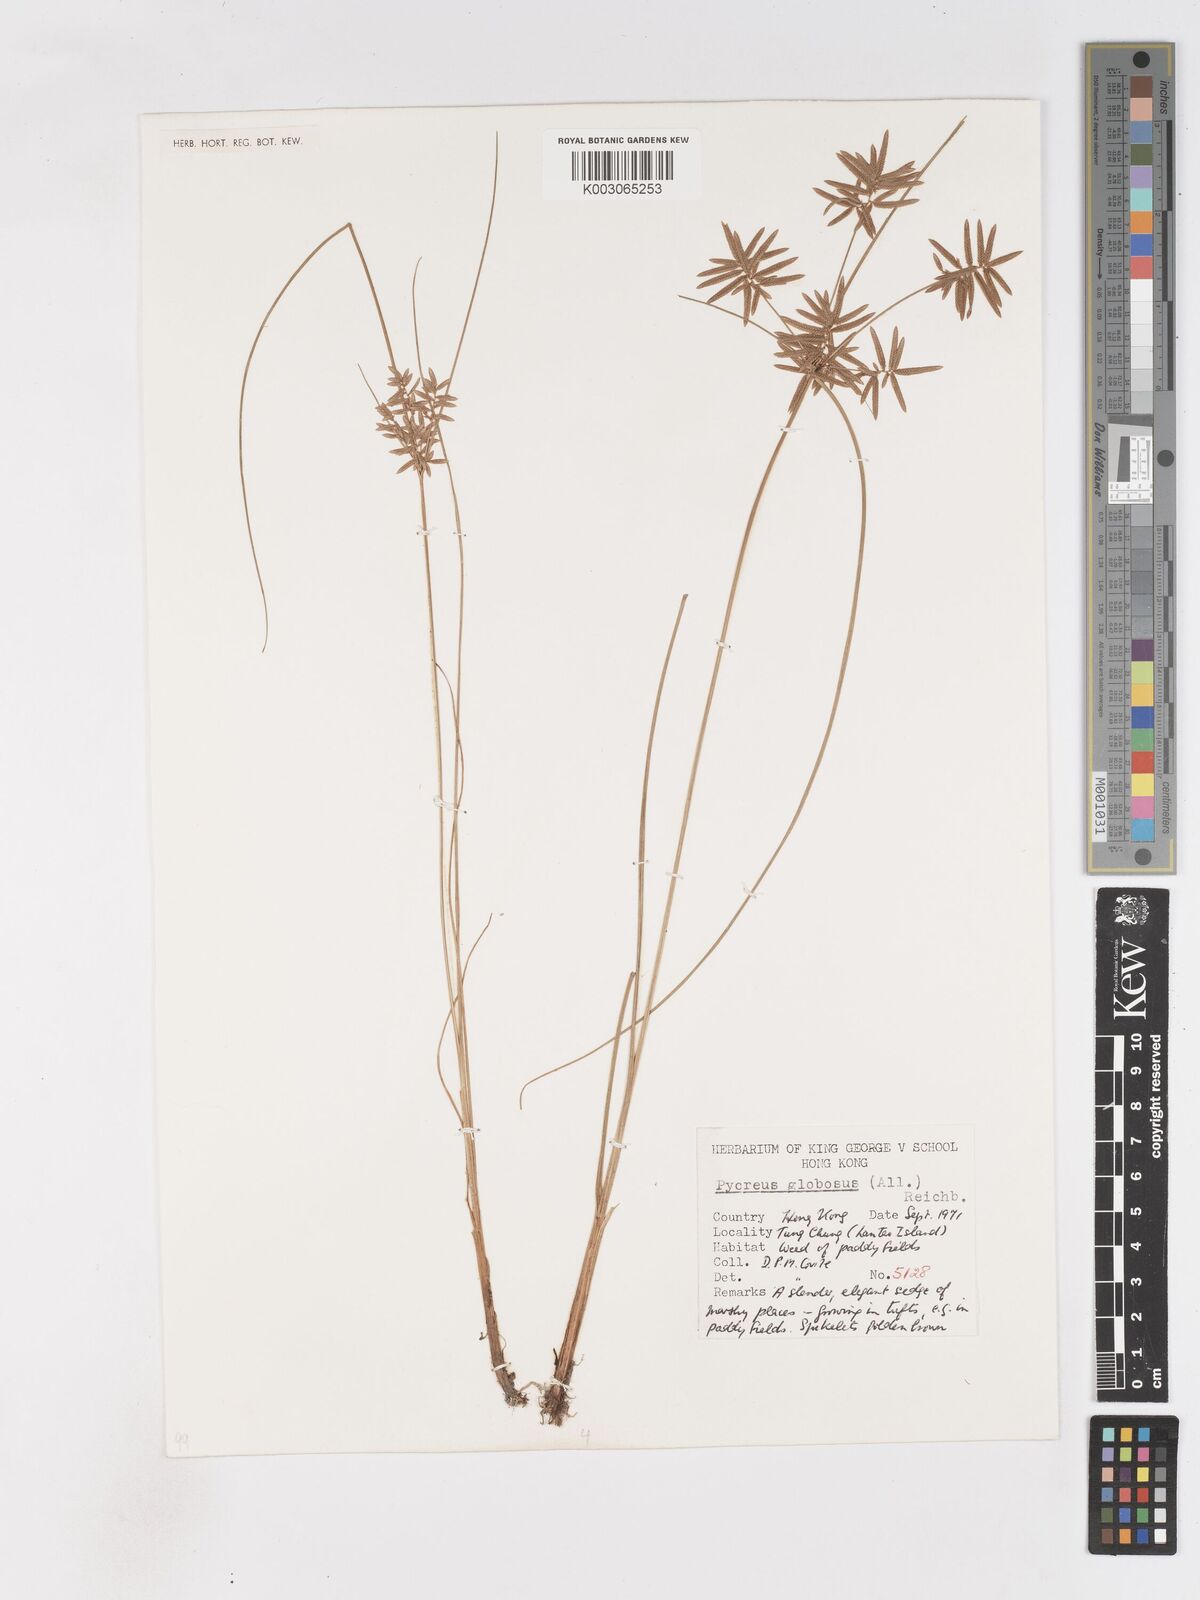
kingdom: Plantae
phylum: Tracheophyta
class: Liliopsida
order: Poales
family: Cyperaceae
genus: Cyperus
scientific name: Cyperus flavidus
